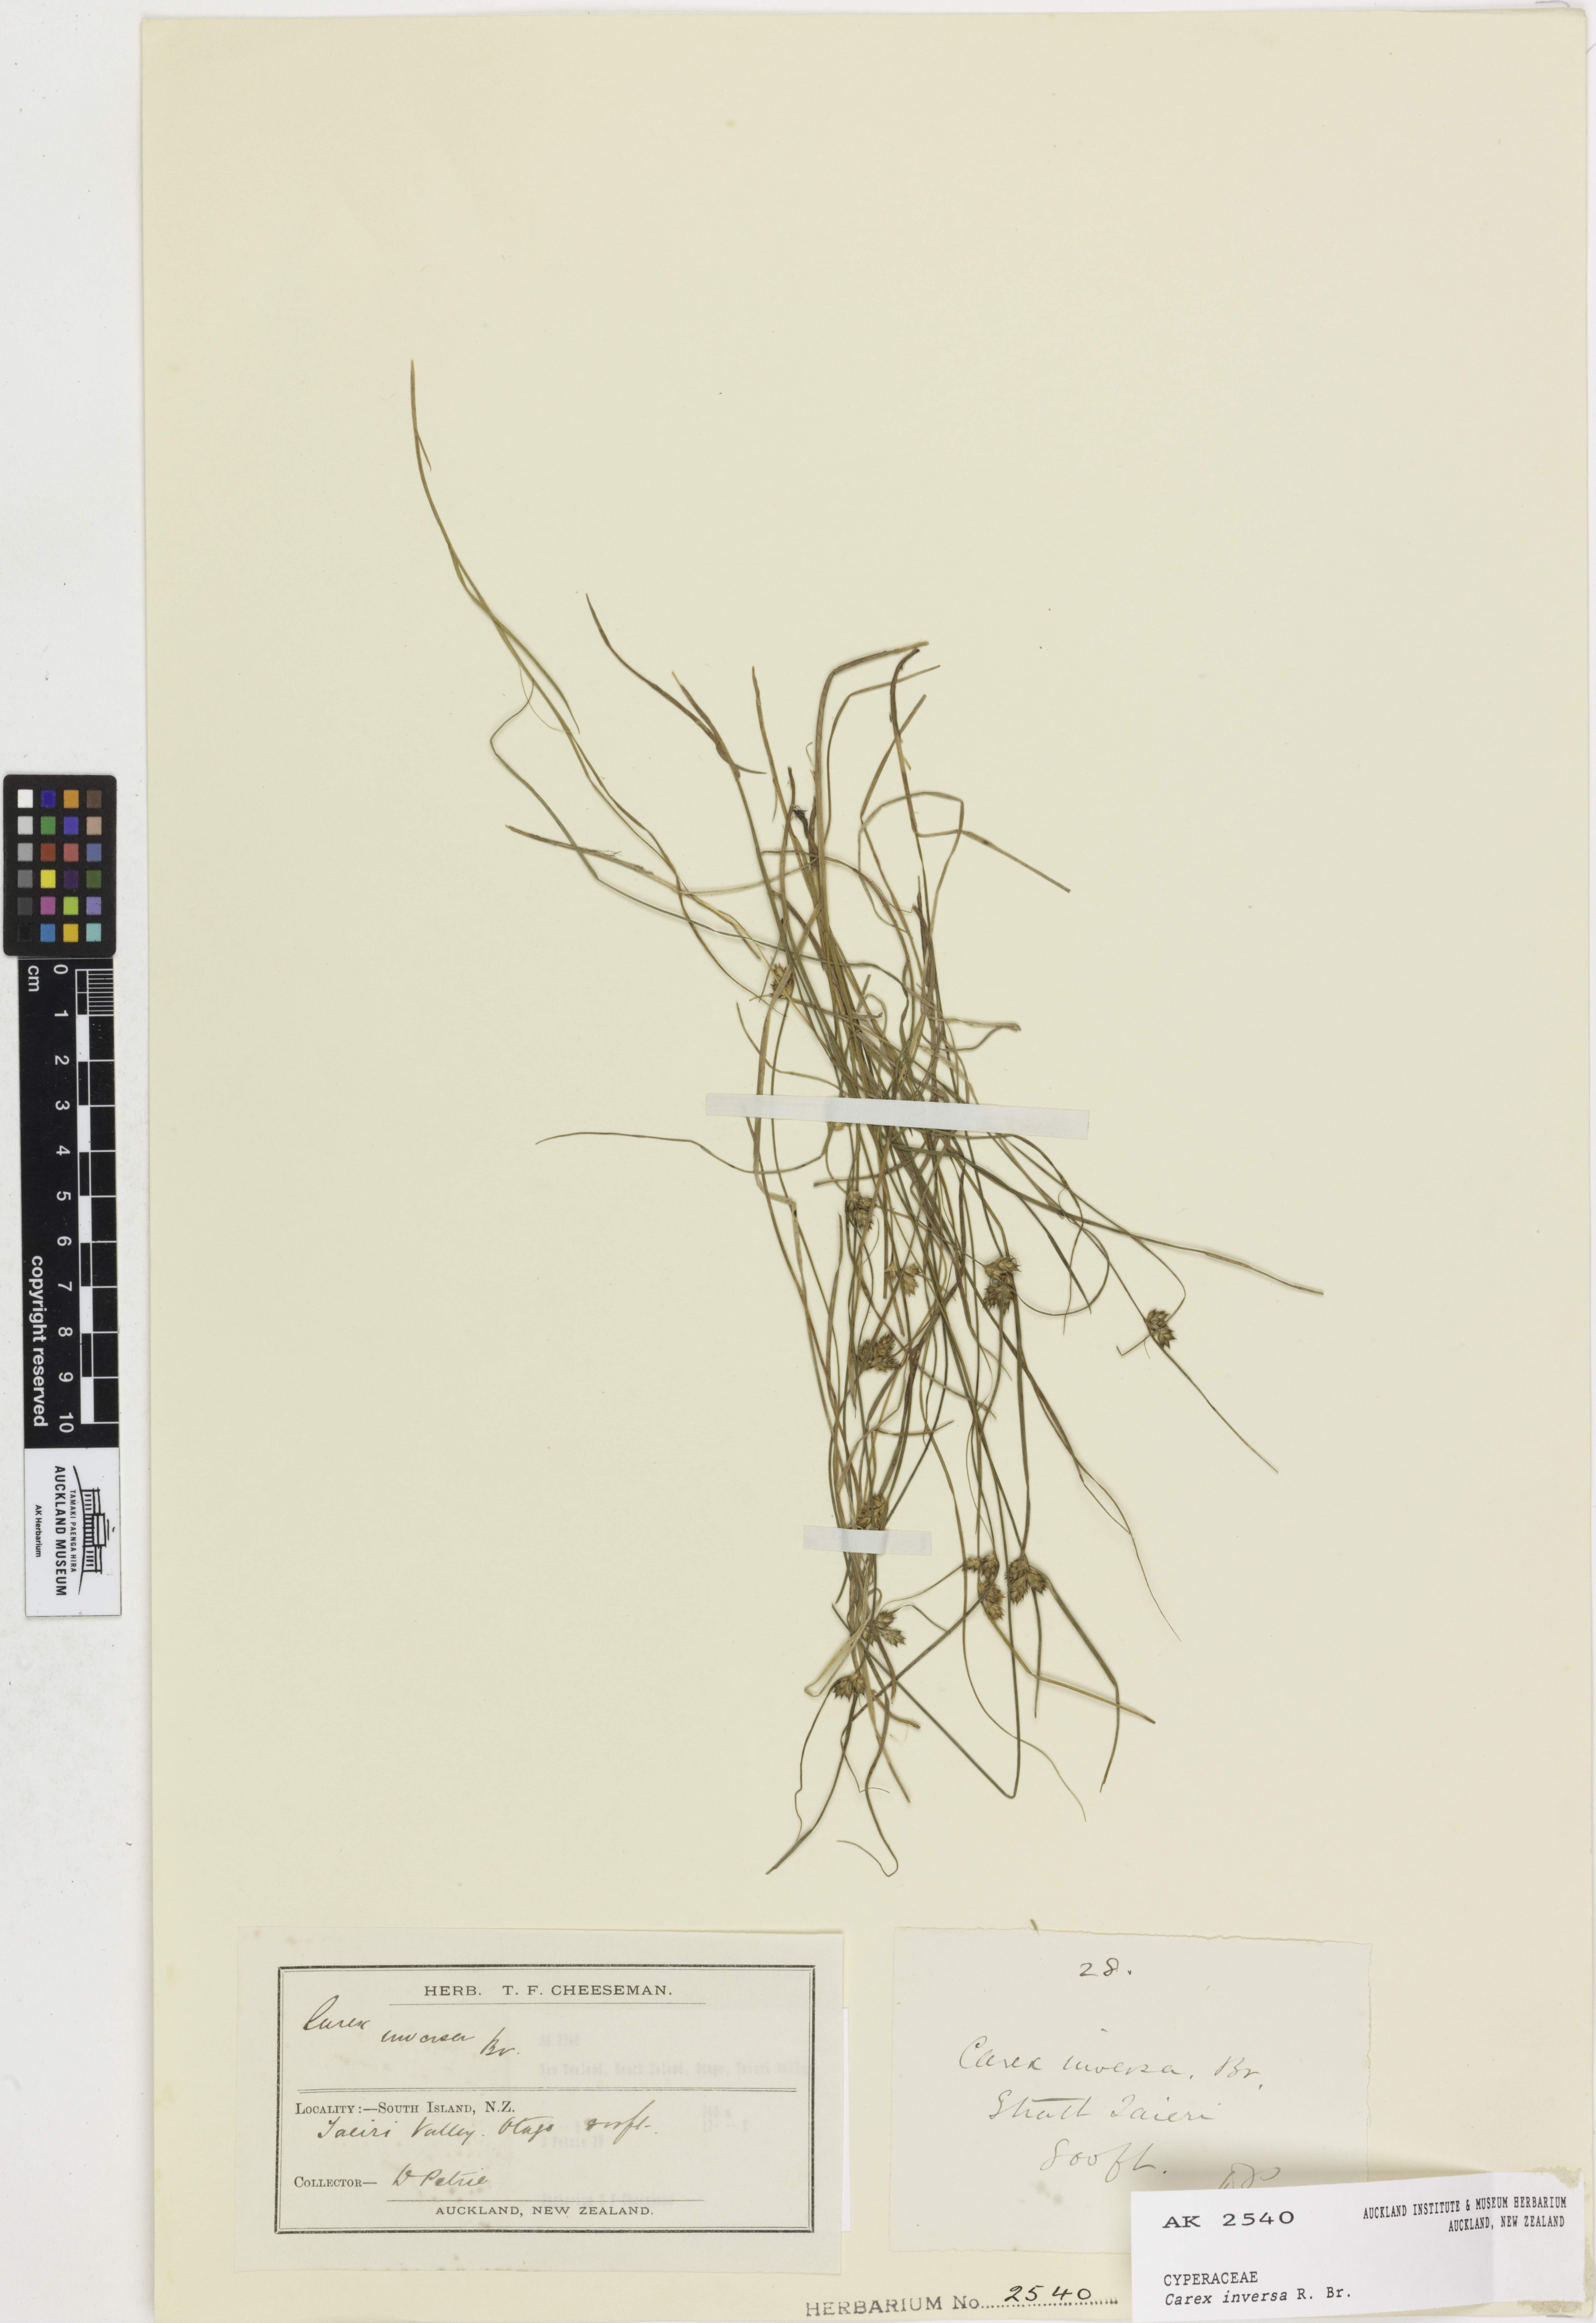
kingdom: Plantae
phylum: Tracheophyta
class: Liliopsida
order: Poales
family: Cyperaceae
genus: Carex
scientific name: Carex inversa
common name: Knob sedge
